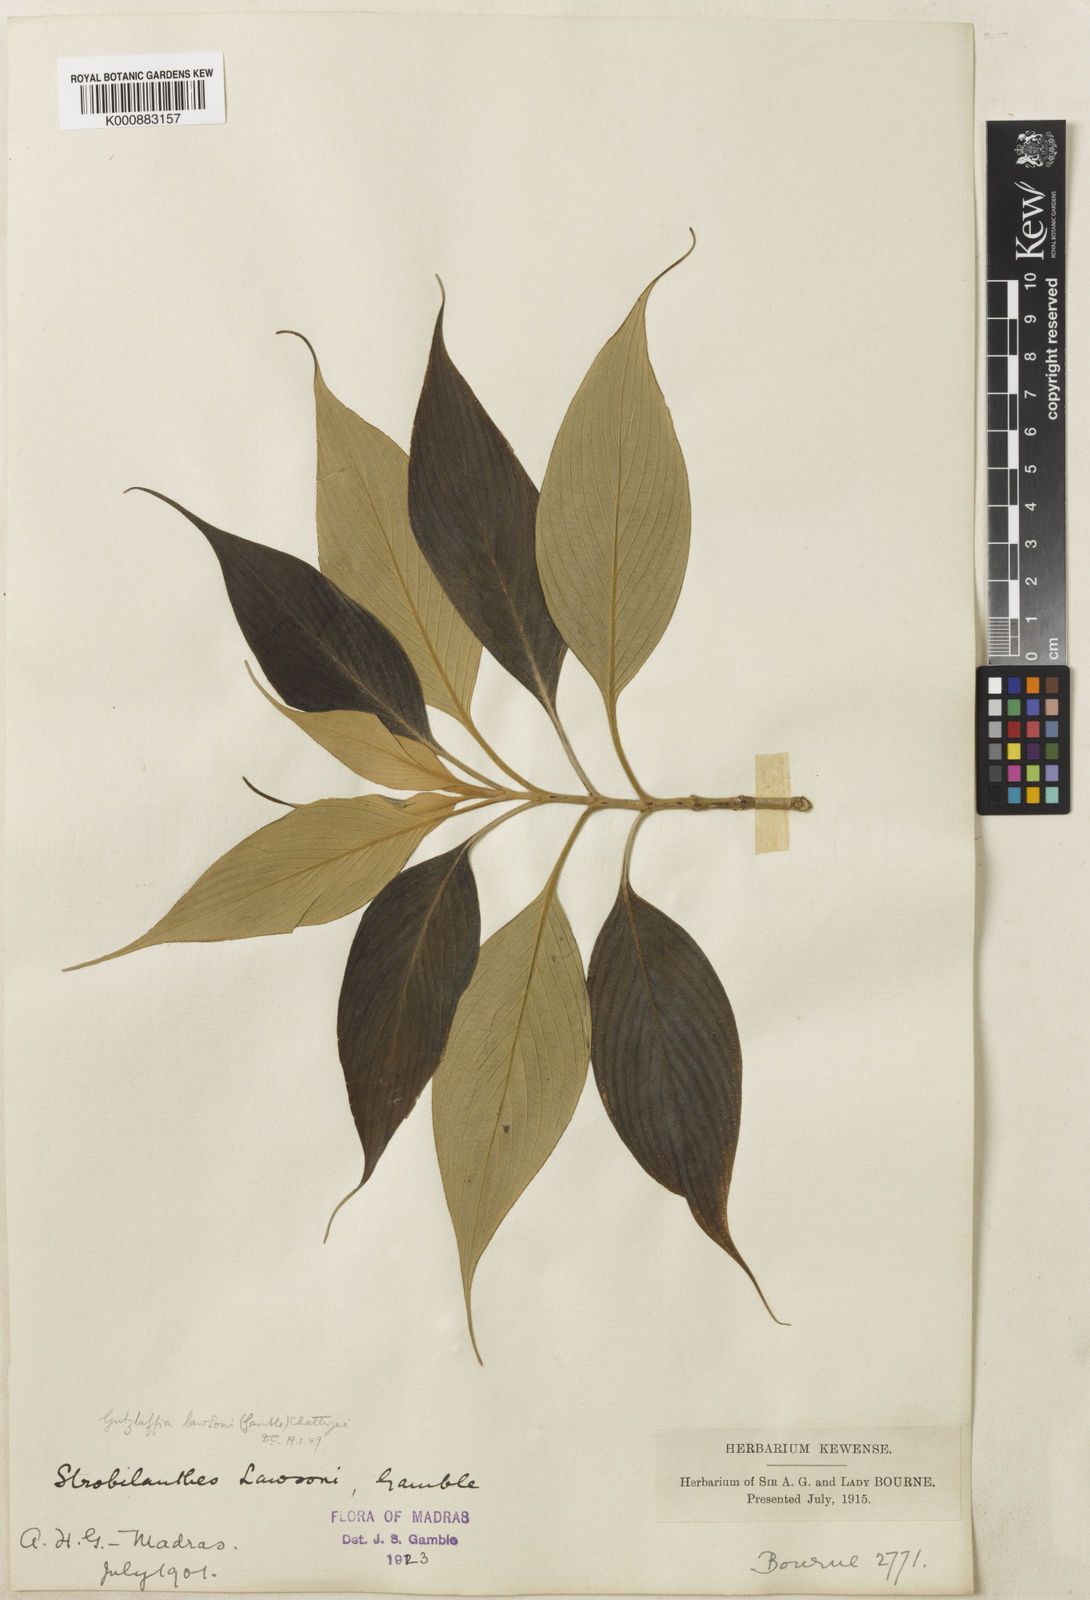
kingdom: Plantae
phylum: Tracheophyta
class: Magnoliopsida
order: Lamiales
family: Acanthaceae
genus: Strobilanthes
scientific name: Strobilanthes
